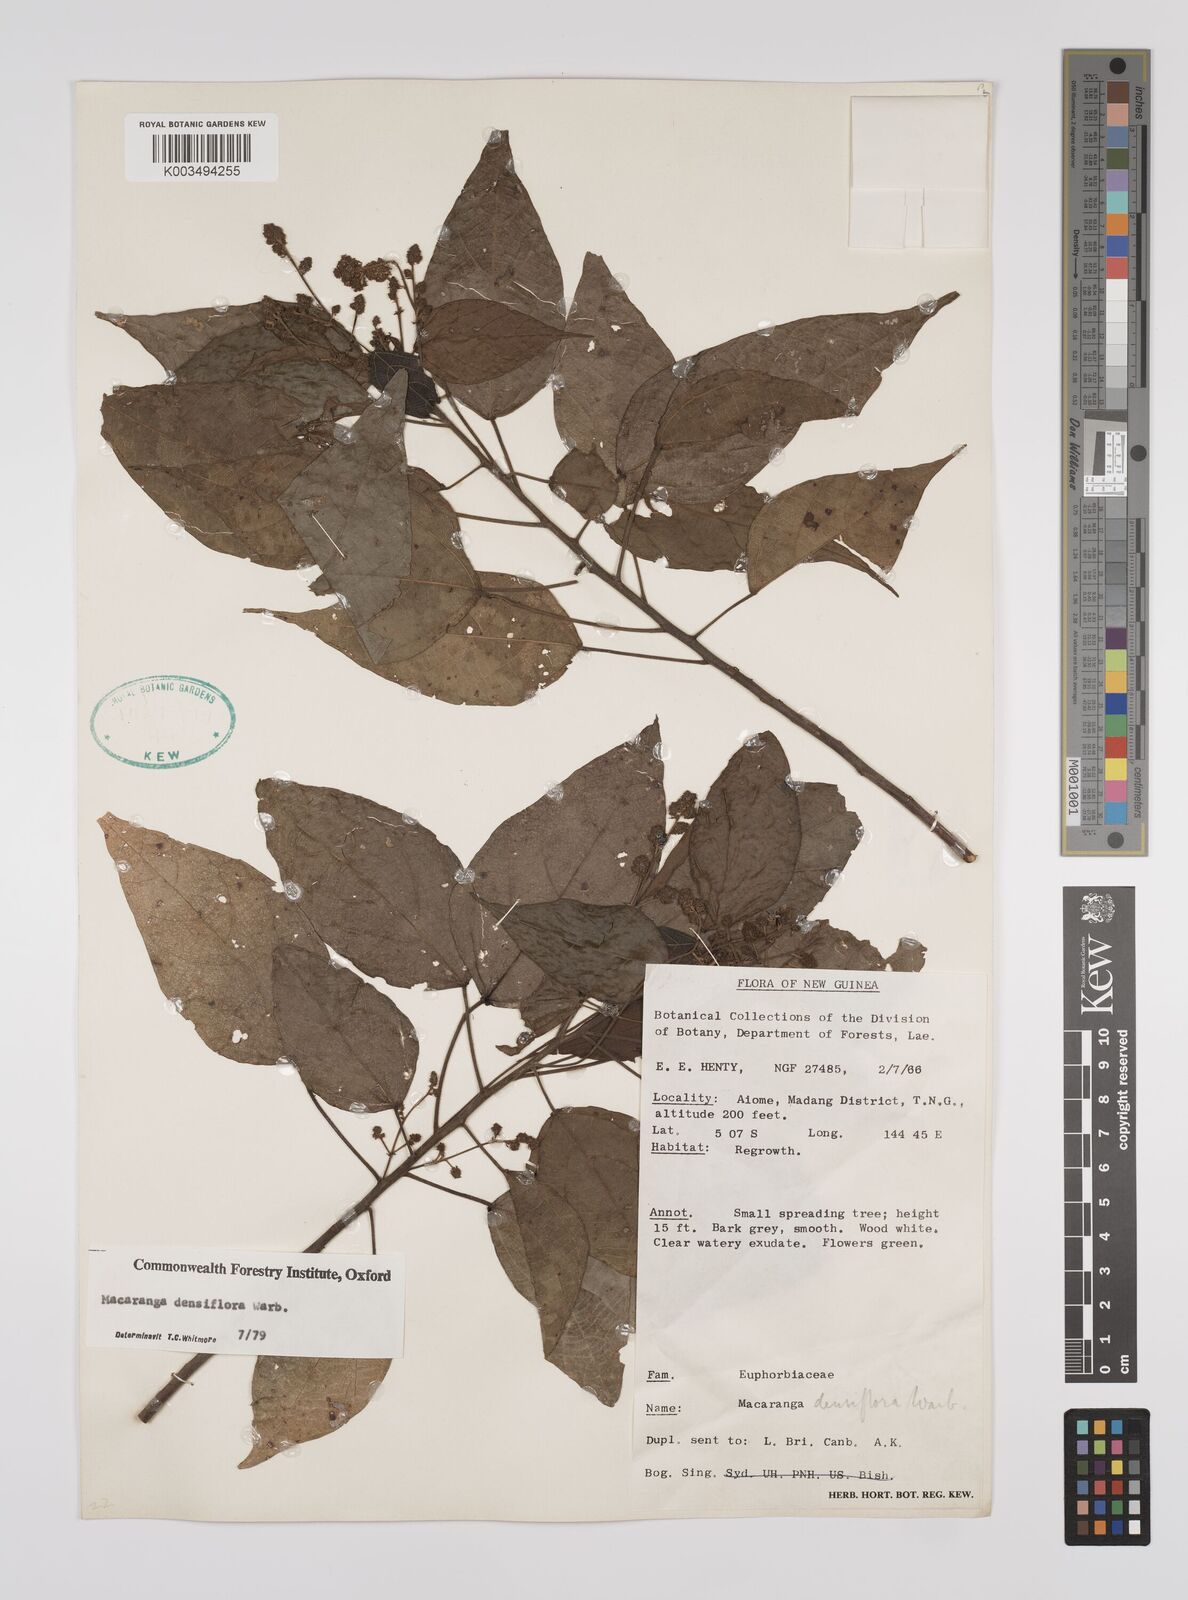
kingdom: Plantae
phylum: Tracheophyta
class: Magnoliopsida
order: Malpighiales
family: Euphorbiaceae
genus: Macaranga
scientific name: Macaranga densiflora
